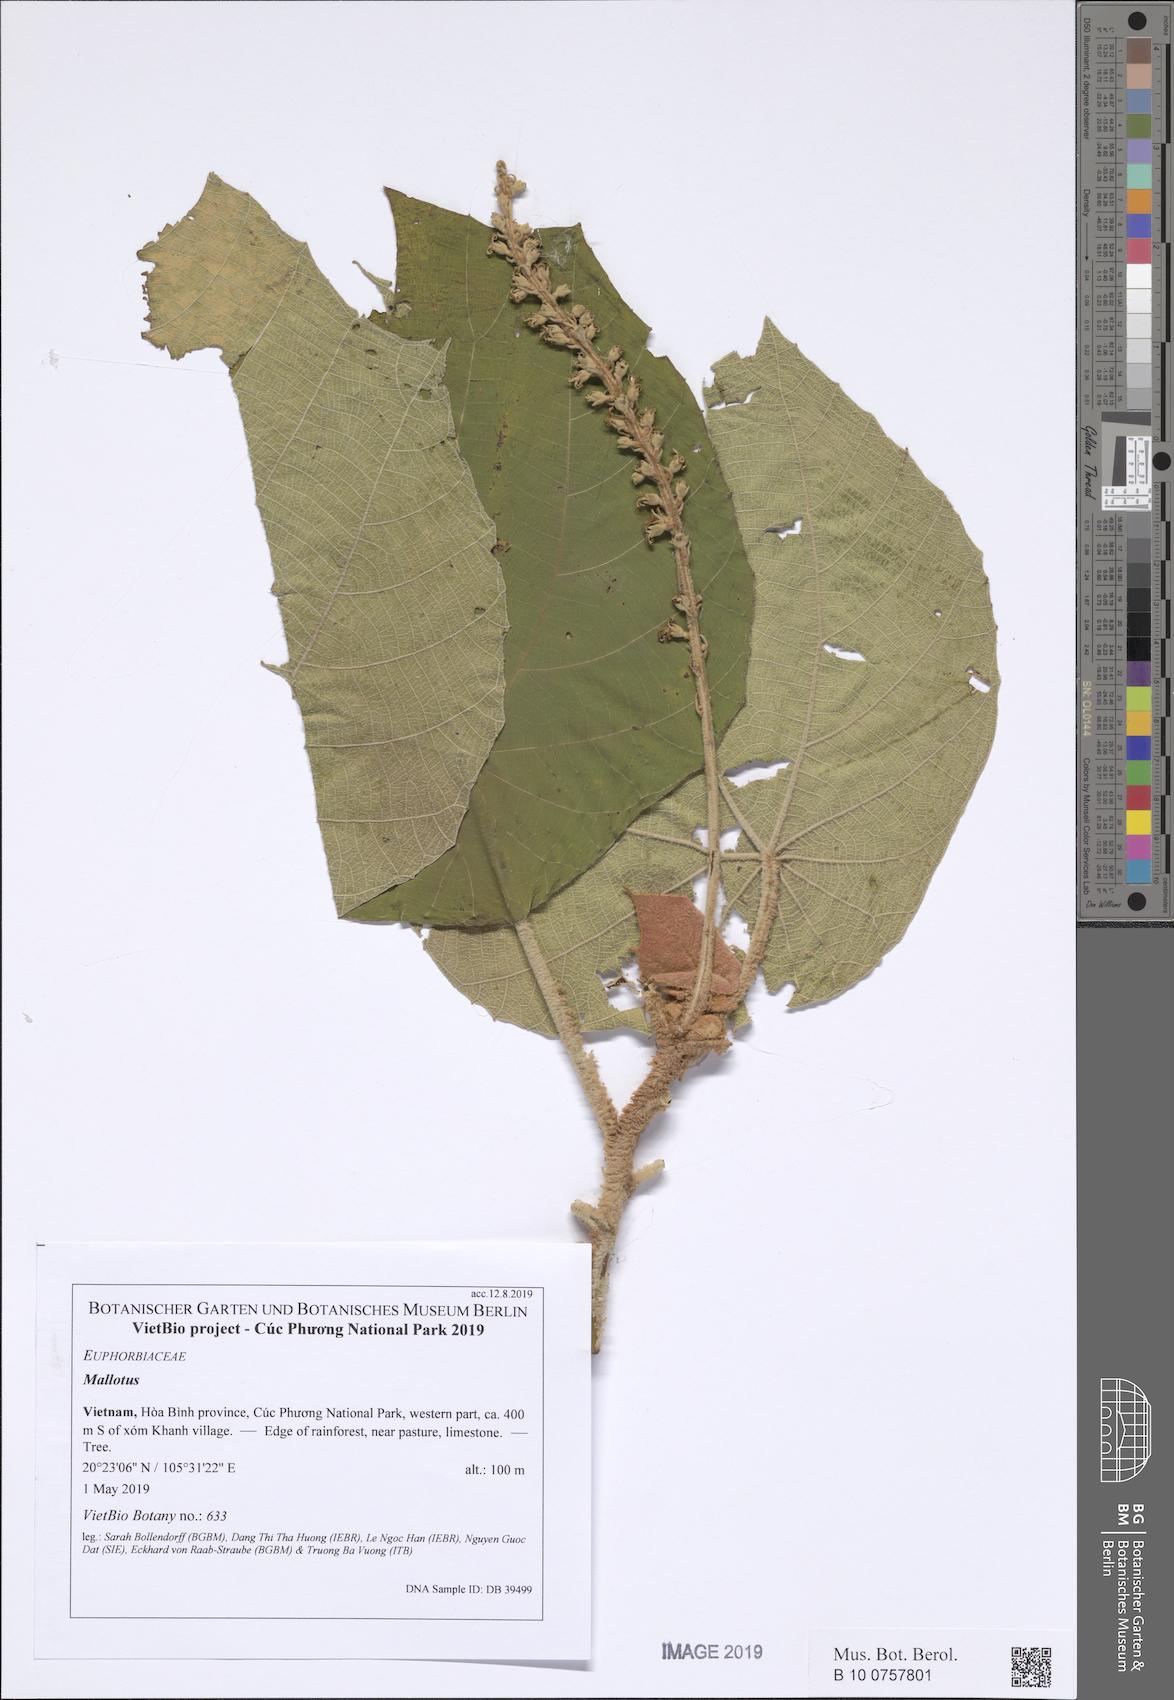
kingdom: Plantae
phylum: Tracheophyta
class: Magnoliopsida
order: Malpighiales
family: Euphorbiaceae
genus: Mallotus
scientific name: Mallotus barbatus
